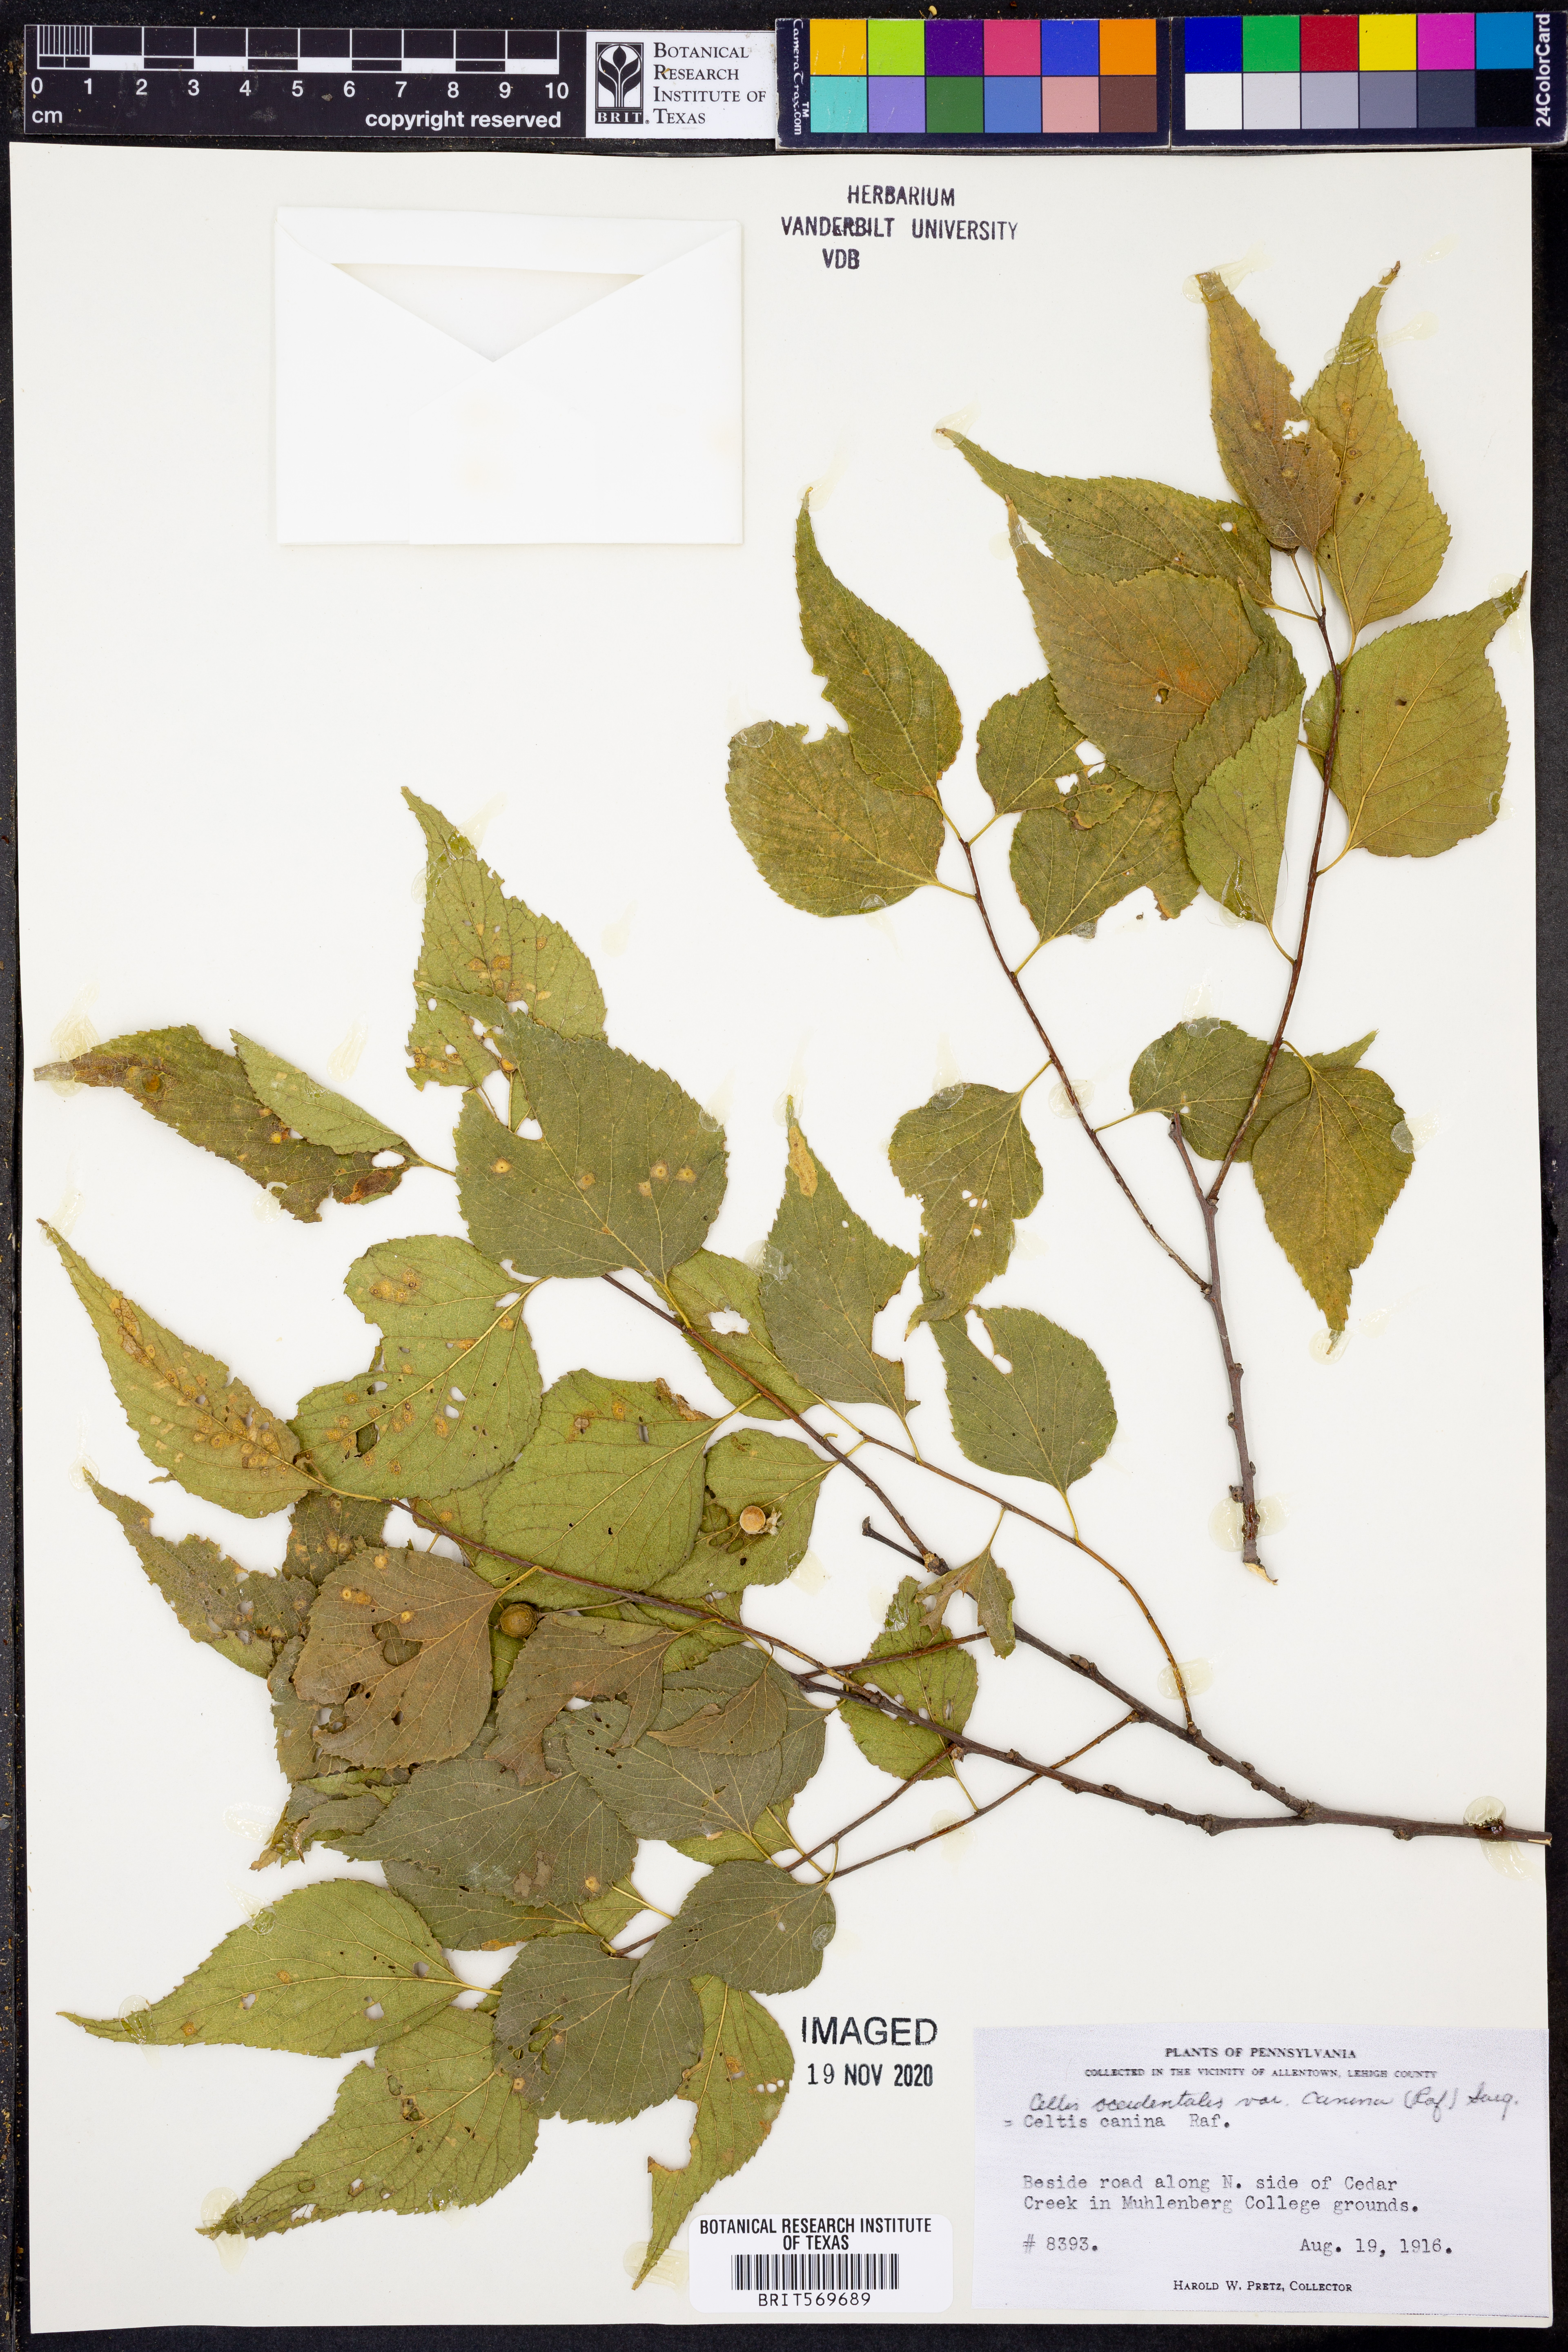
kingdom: Plantae
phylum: Tracheophyta
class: Magnoliopsida
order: Rosales
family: Cannabaceae
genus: Celtis
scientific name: Celtis occidentalis
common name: Common hackberry
